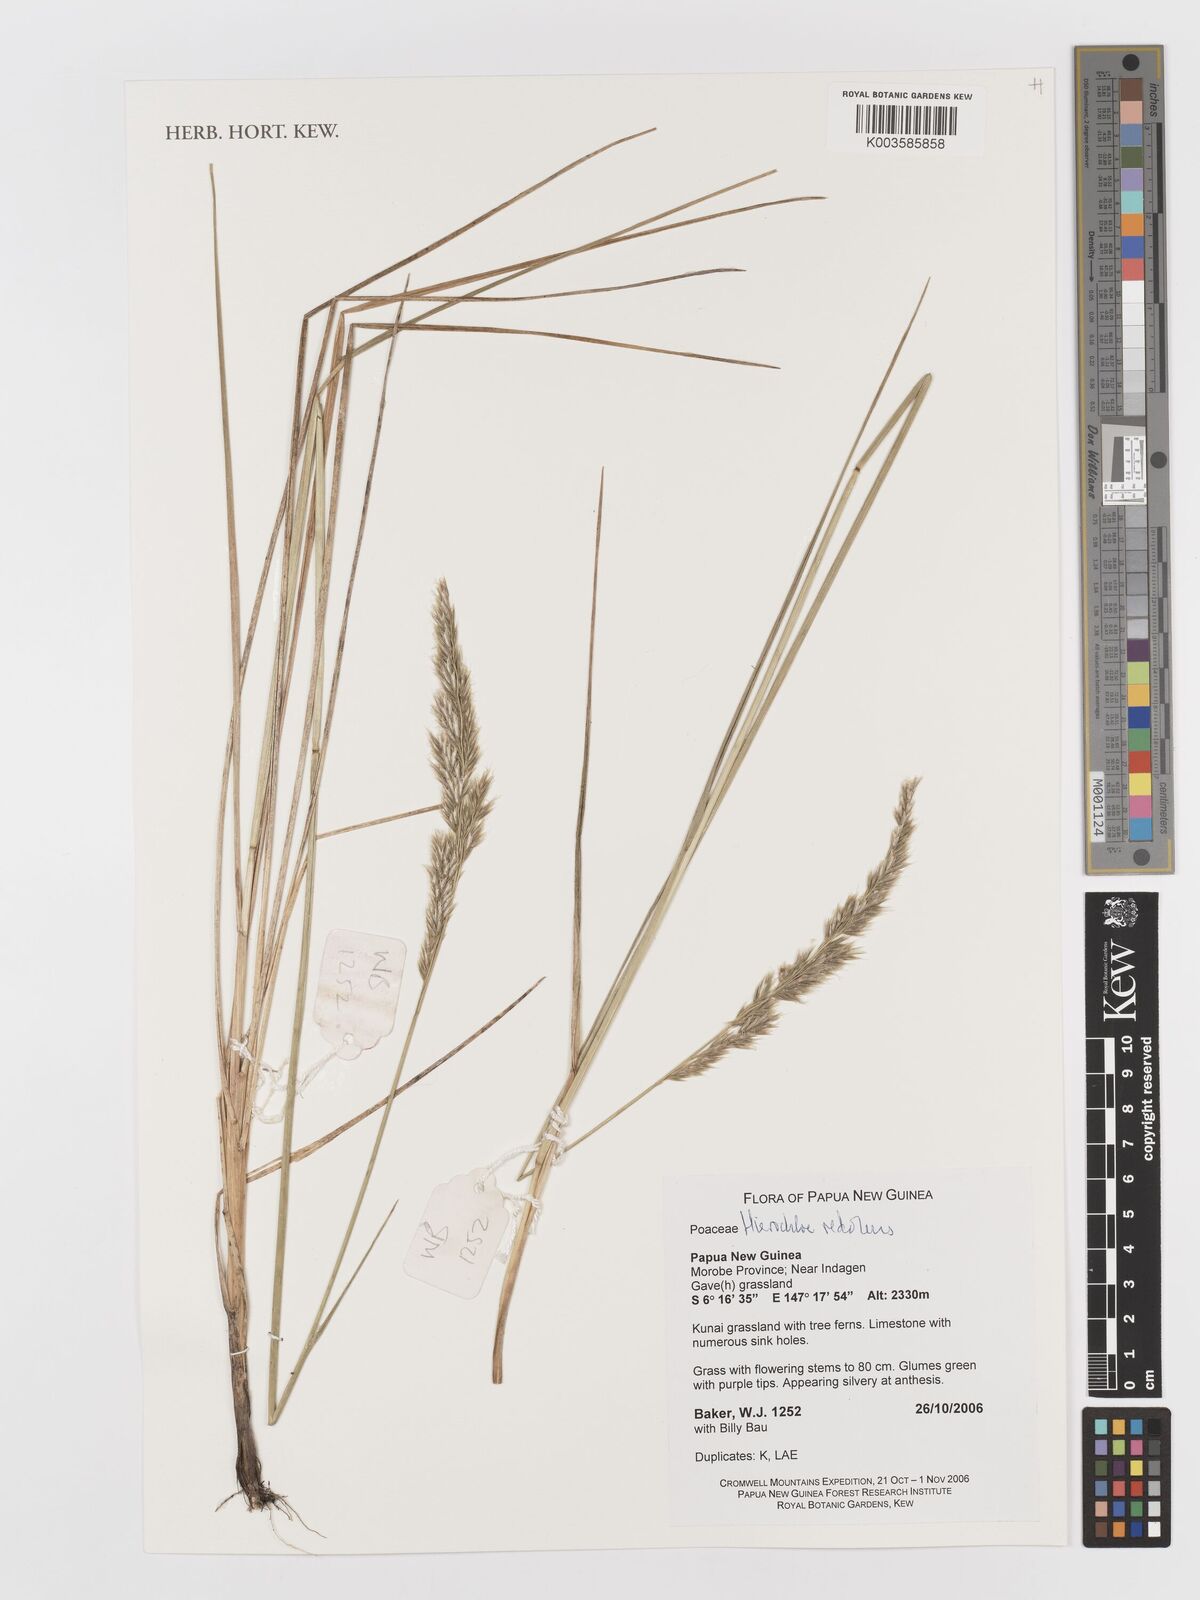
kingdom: Plantae
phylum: Tracheophyta
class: Liliopsida
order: Poales
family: Poaceae
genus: Anthoxanthum
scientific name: Anthoxanthum redolens
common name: Sweet holy grass
